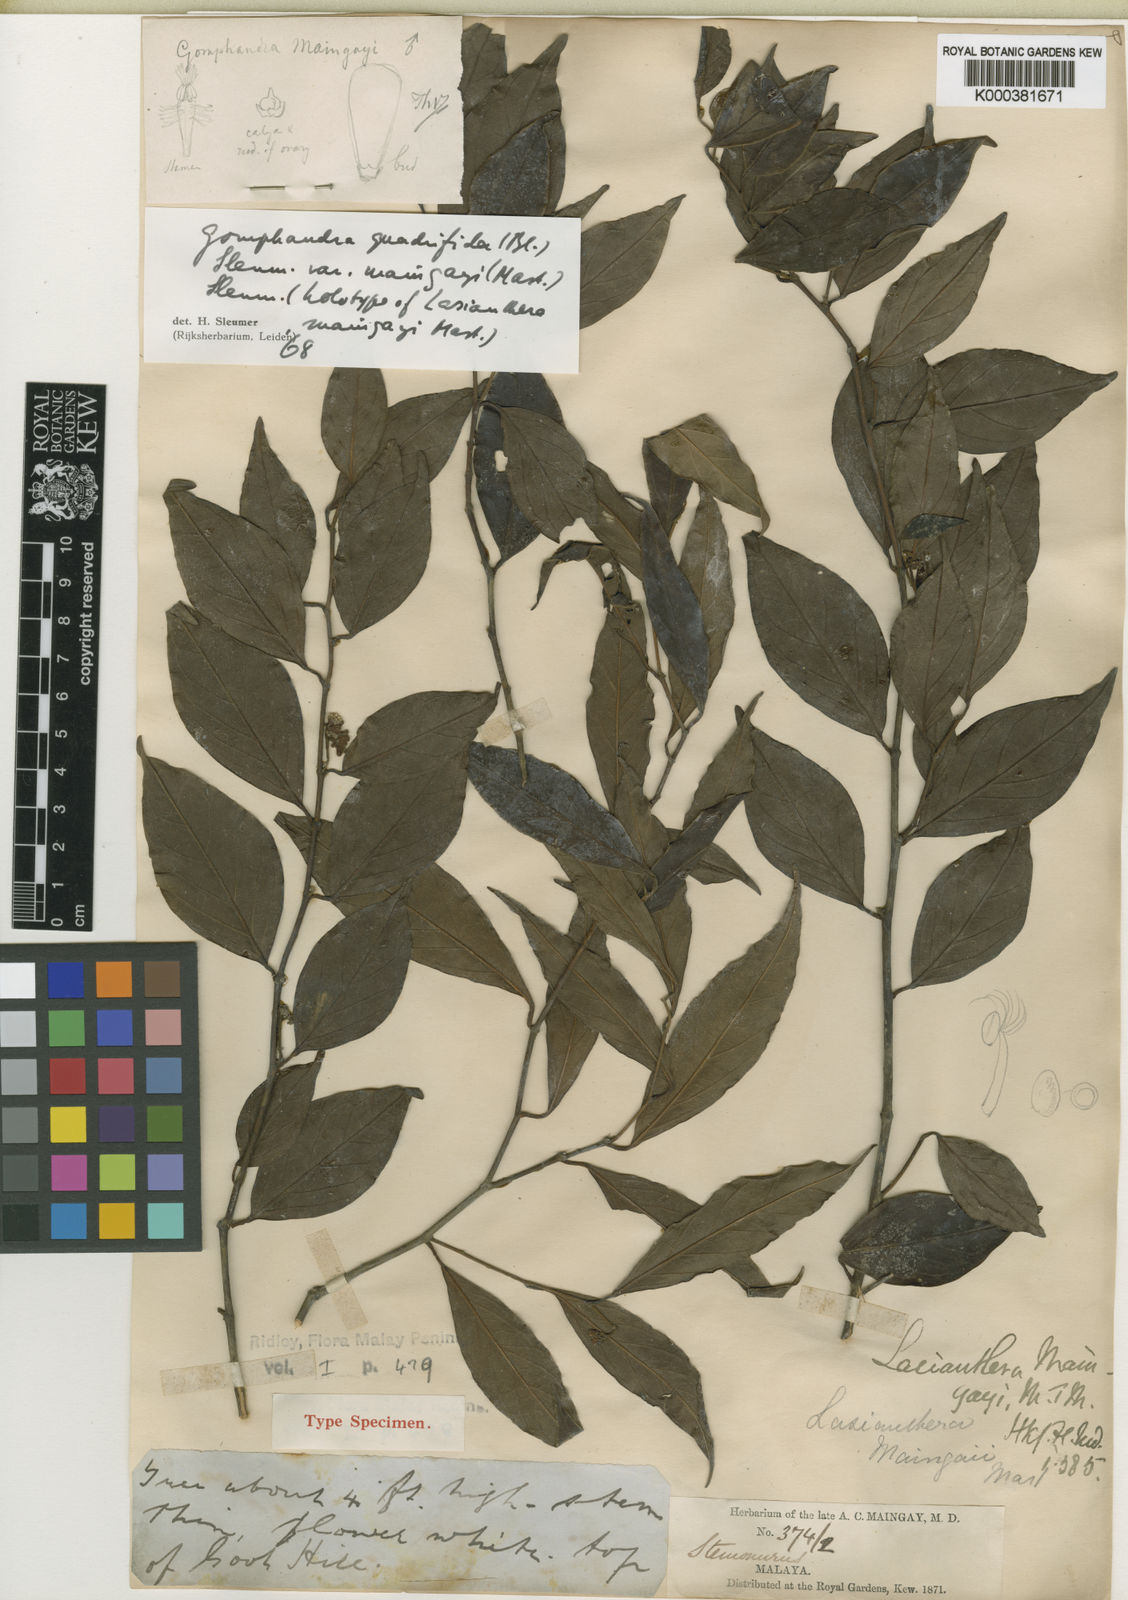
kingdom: Plantae
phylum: Tracheophyta
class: Magnoliopsida
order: Cardiopteridales
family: Stemonuraceae
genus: Gomphandra
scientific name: Gomphandra quadrifida
